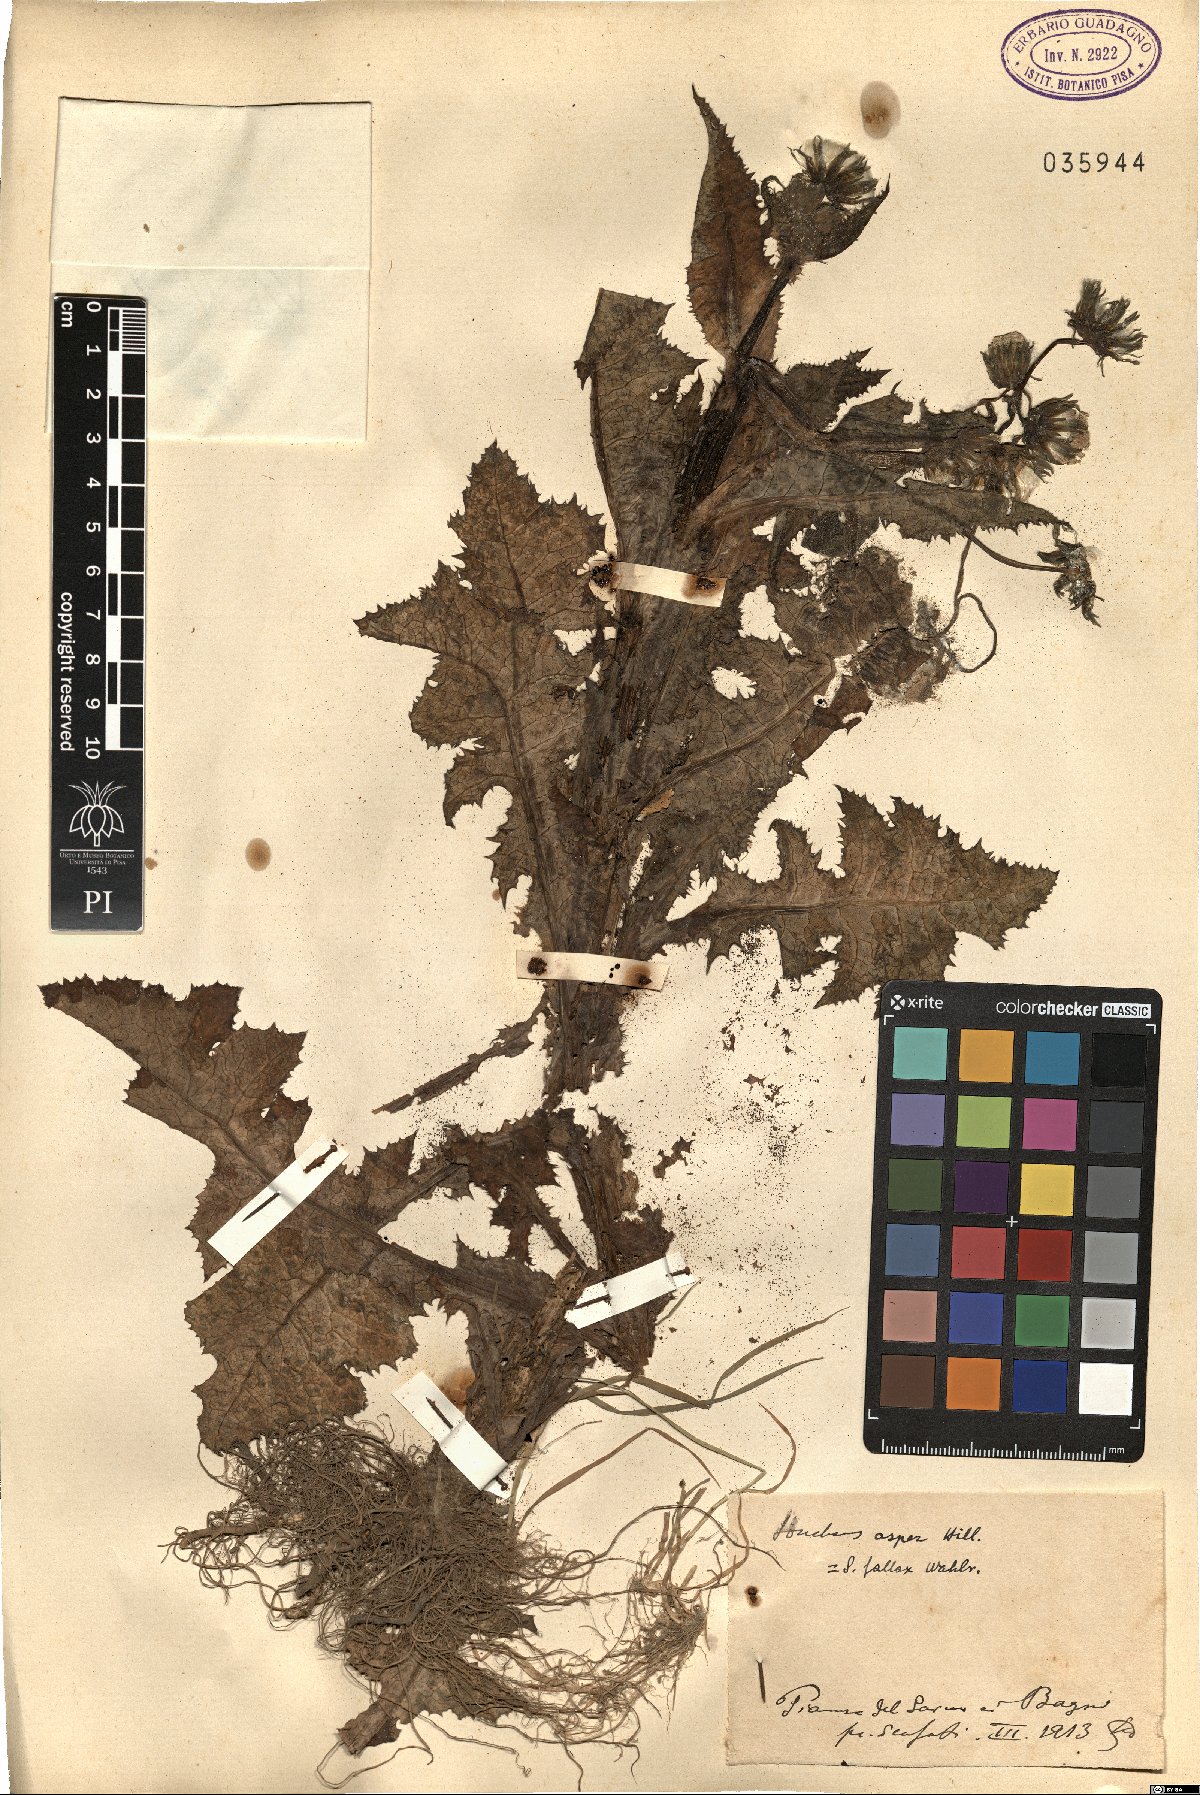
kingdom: Plantae
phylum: Tracheophyta
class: Magnoliopsida
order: Asterales
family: Asteraceae
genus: Sonchus
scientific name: Sonchus asper
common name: Prickly sow-thistle
